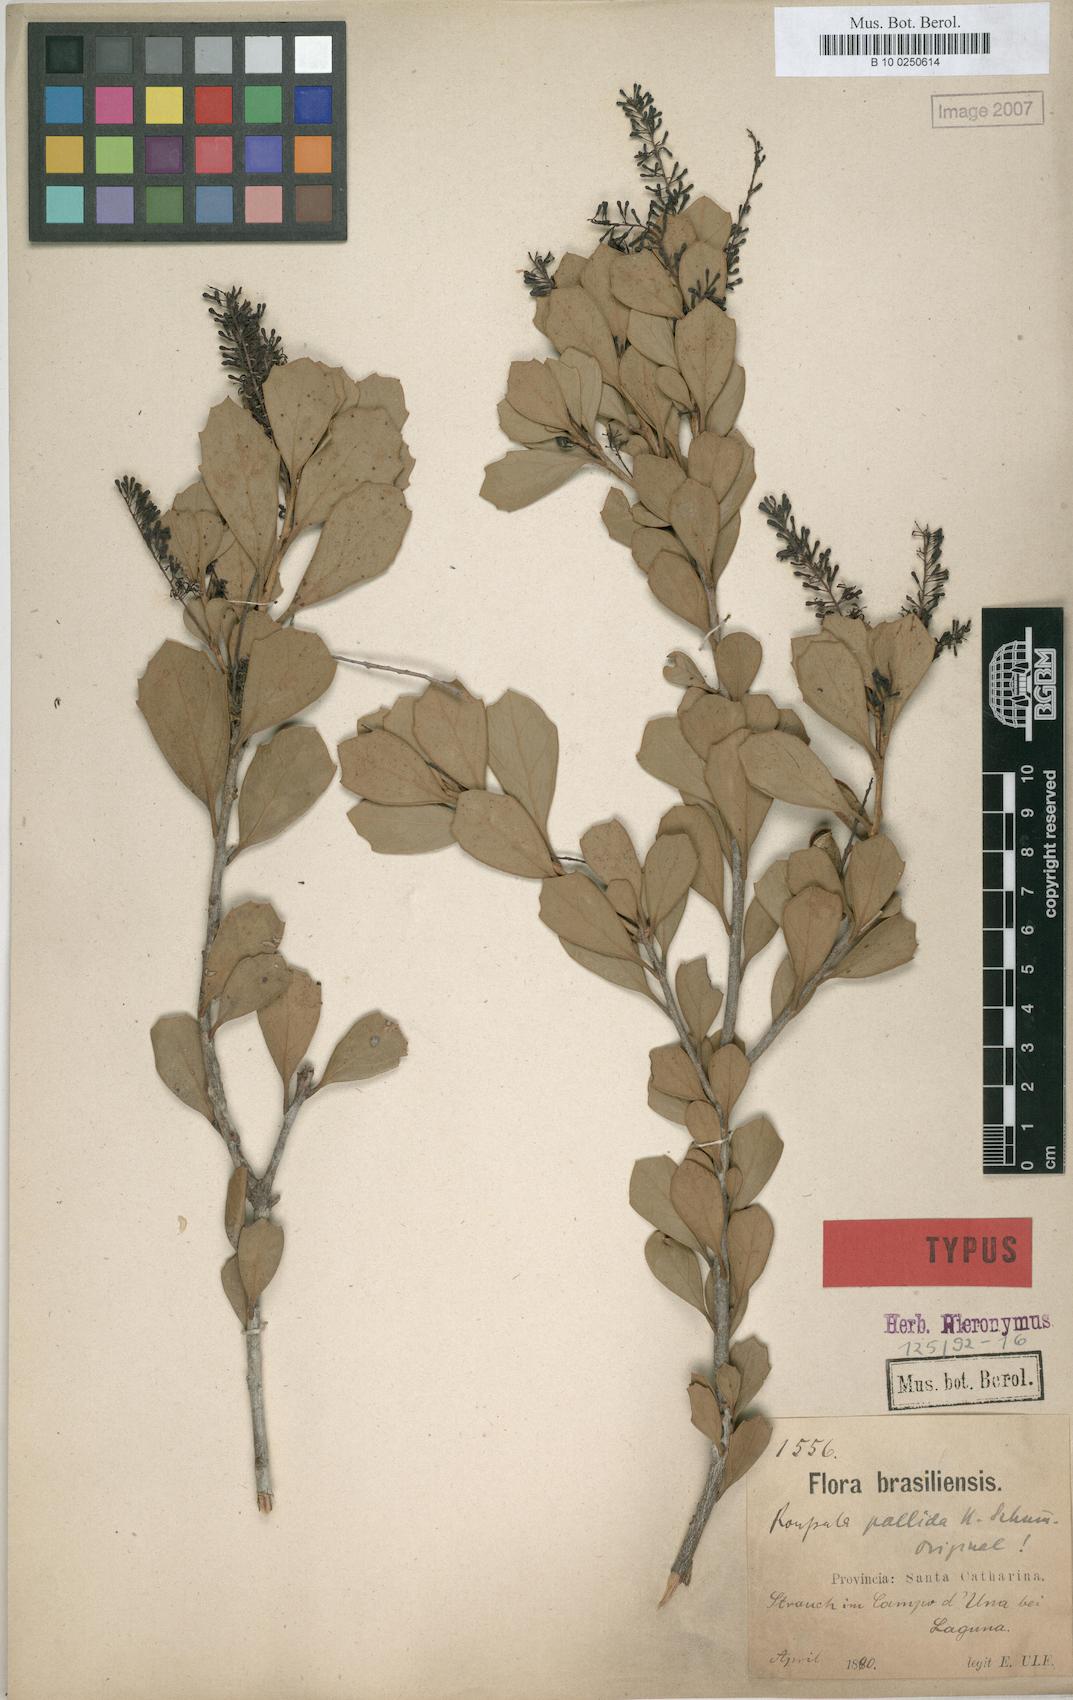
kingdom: Plantae
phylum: Tracheophyta
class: Magnoliopsida
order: Proteales
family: Proteaceae
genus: Roupala
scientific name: Roupala pallida
